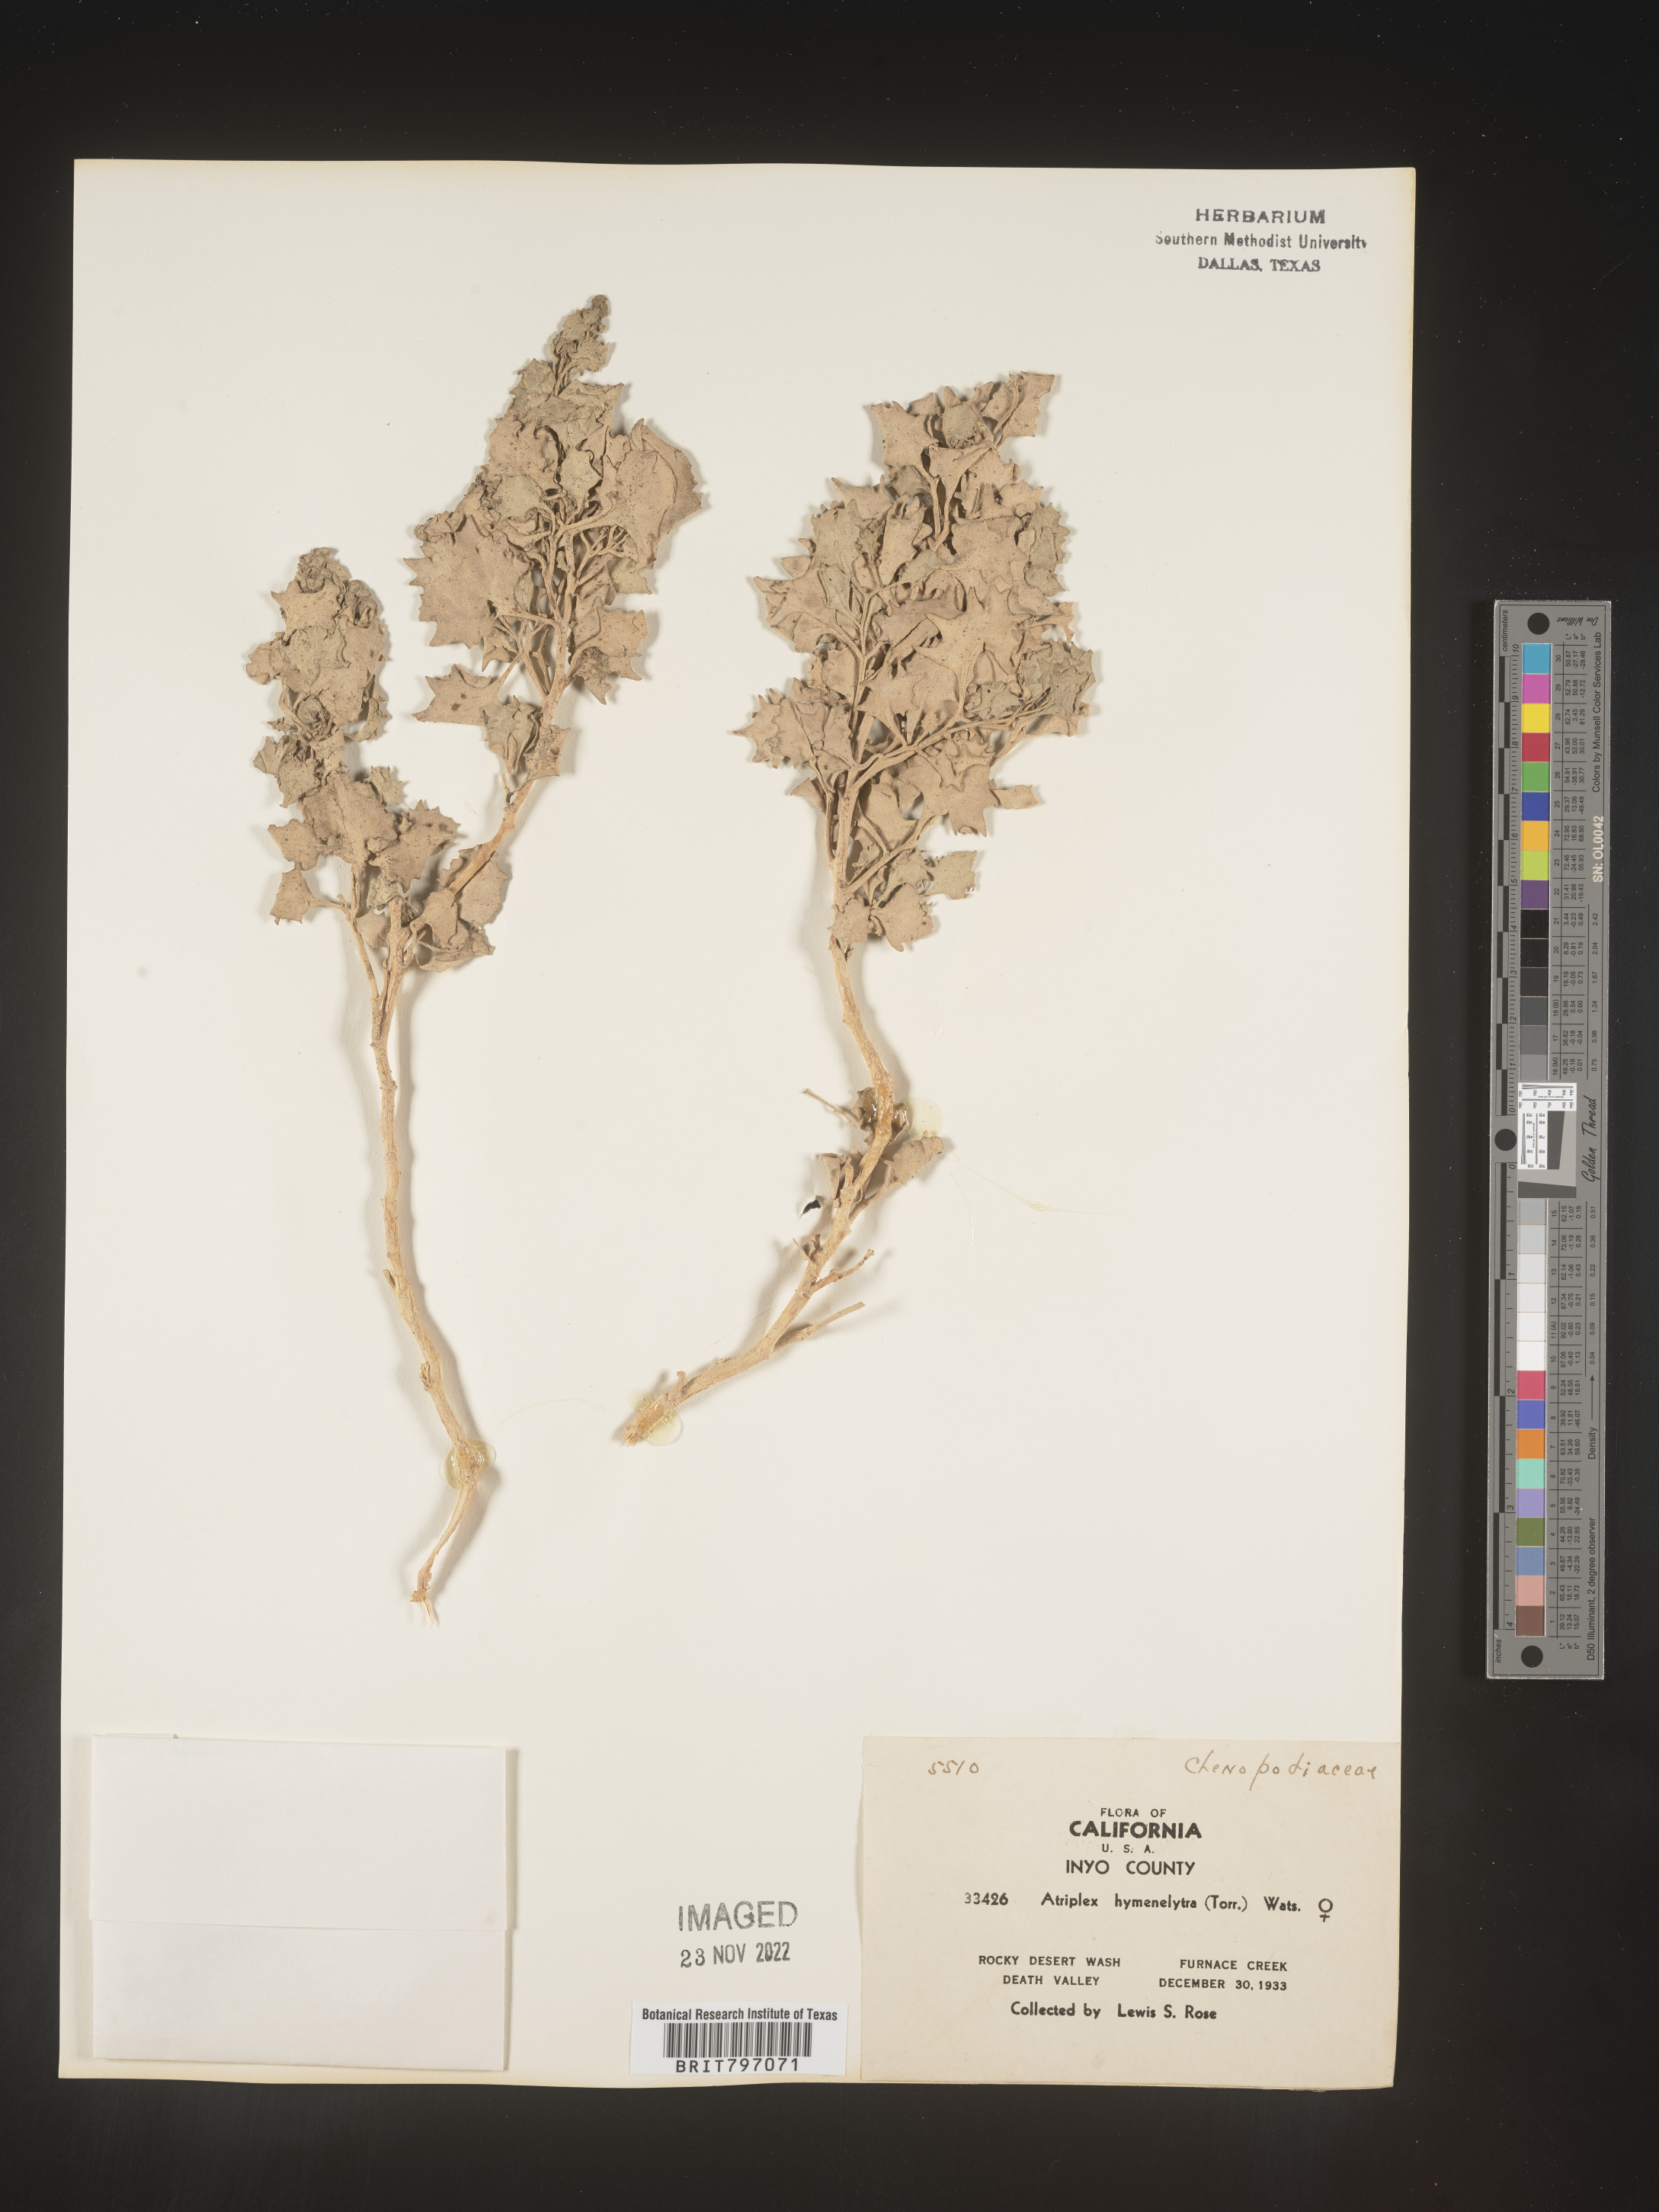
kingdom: Plantae
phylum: Tracheophyta
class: Magnoliopsida
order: Caryophyllales
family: Amaranthaceae
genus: Atriplex
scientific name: Atriplex
